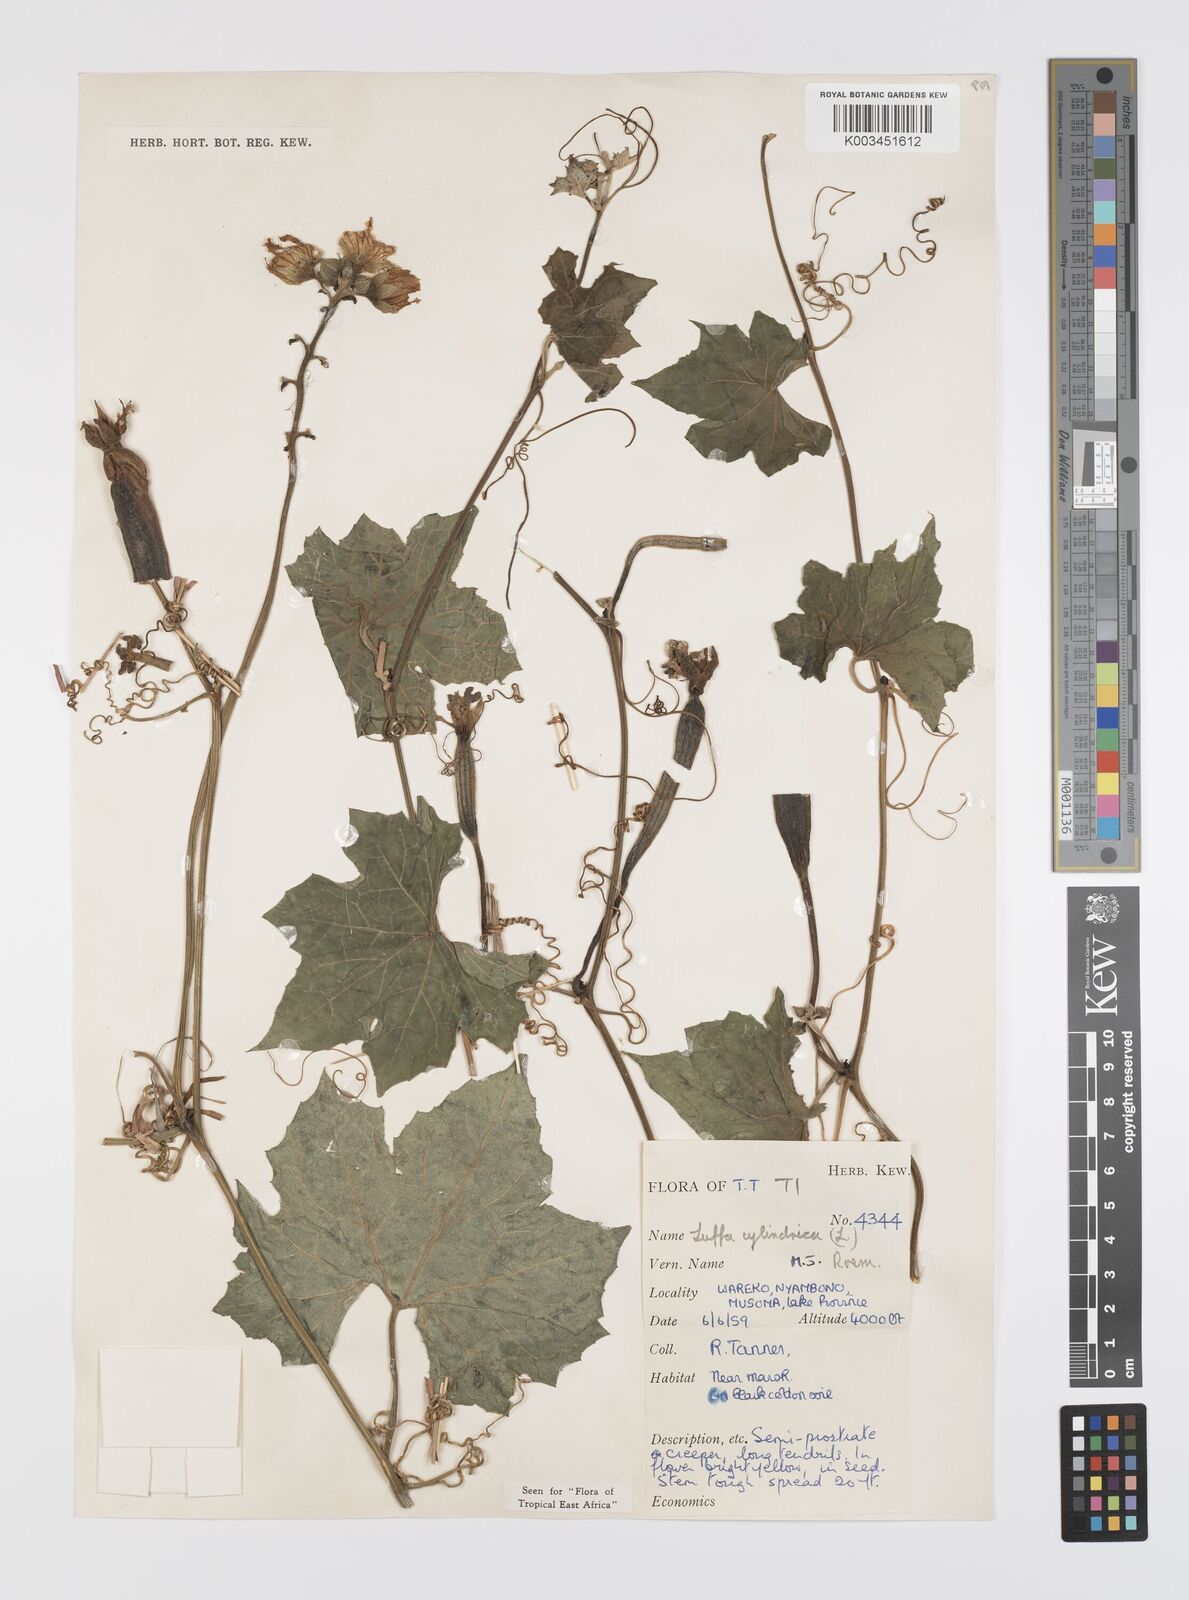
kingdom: Plantae
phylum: Tracheophyta
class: Magnoliopsida
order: Cucurbitales
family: Cucurbitaceae
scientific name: Cucurbitaceae
